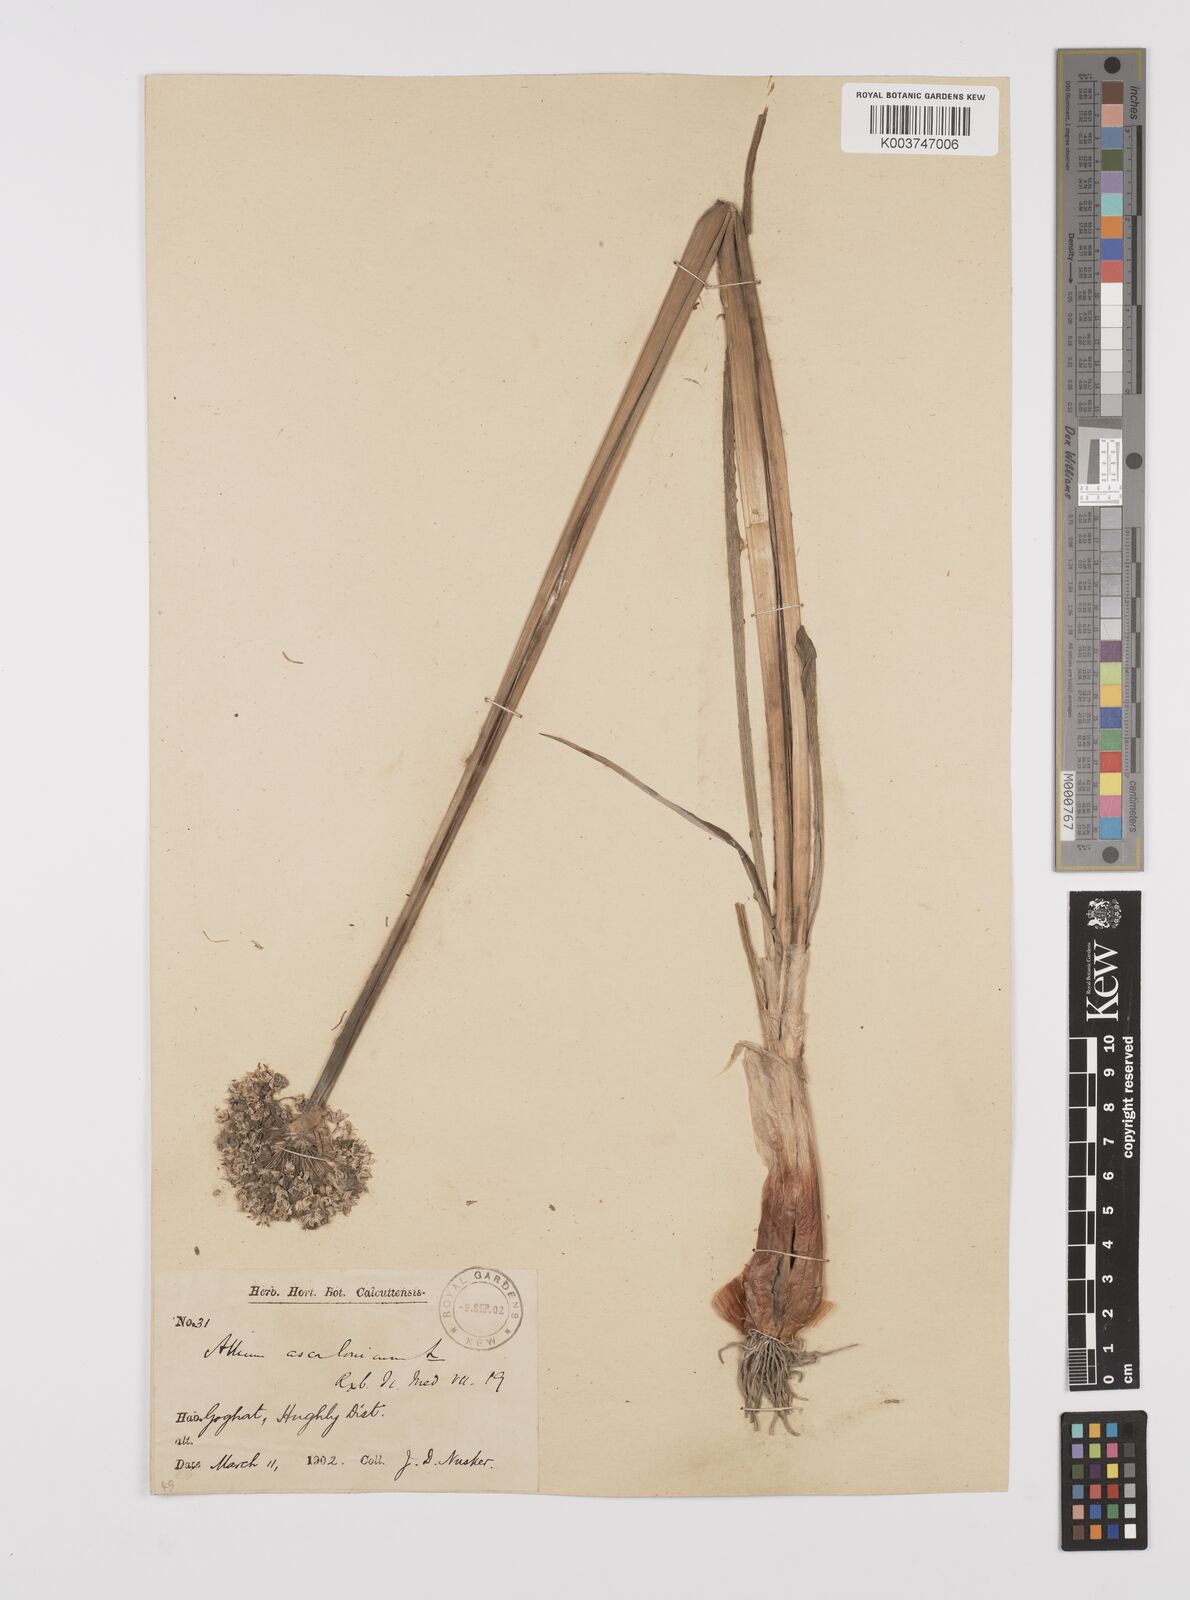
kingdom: Plantae
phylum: Tracheophyta
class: Liliopsida
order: Asparagales
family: Amaryllidaceae
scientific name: Amaryllidaceae
